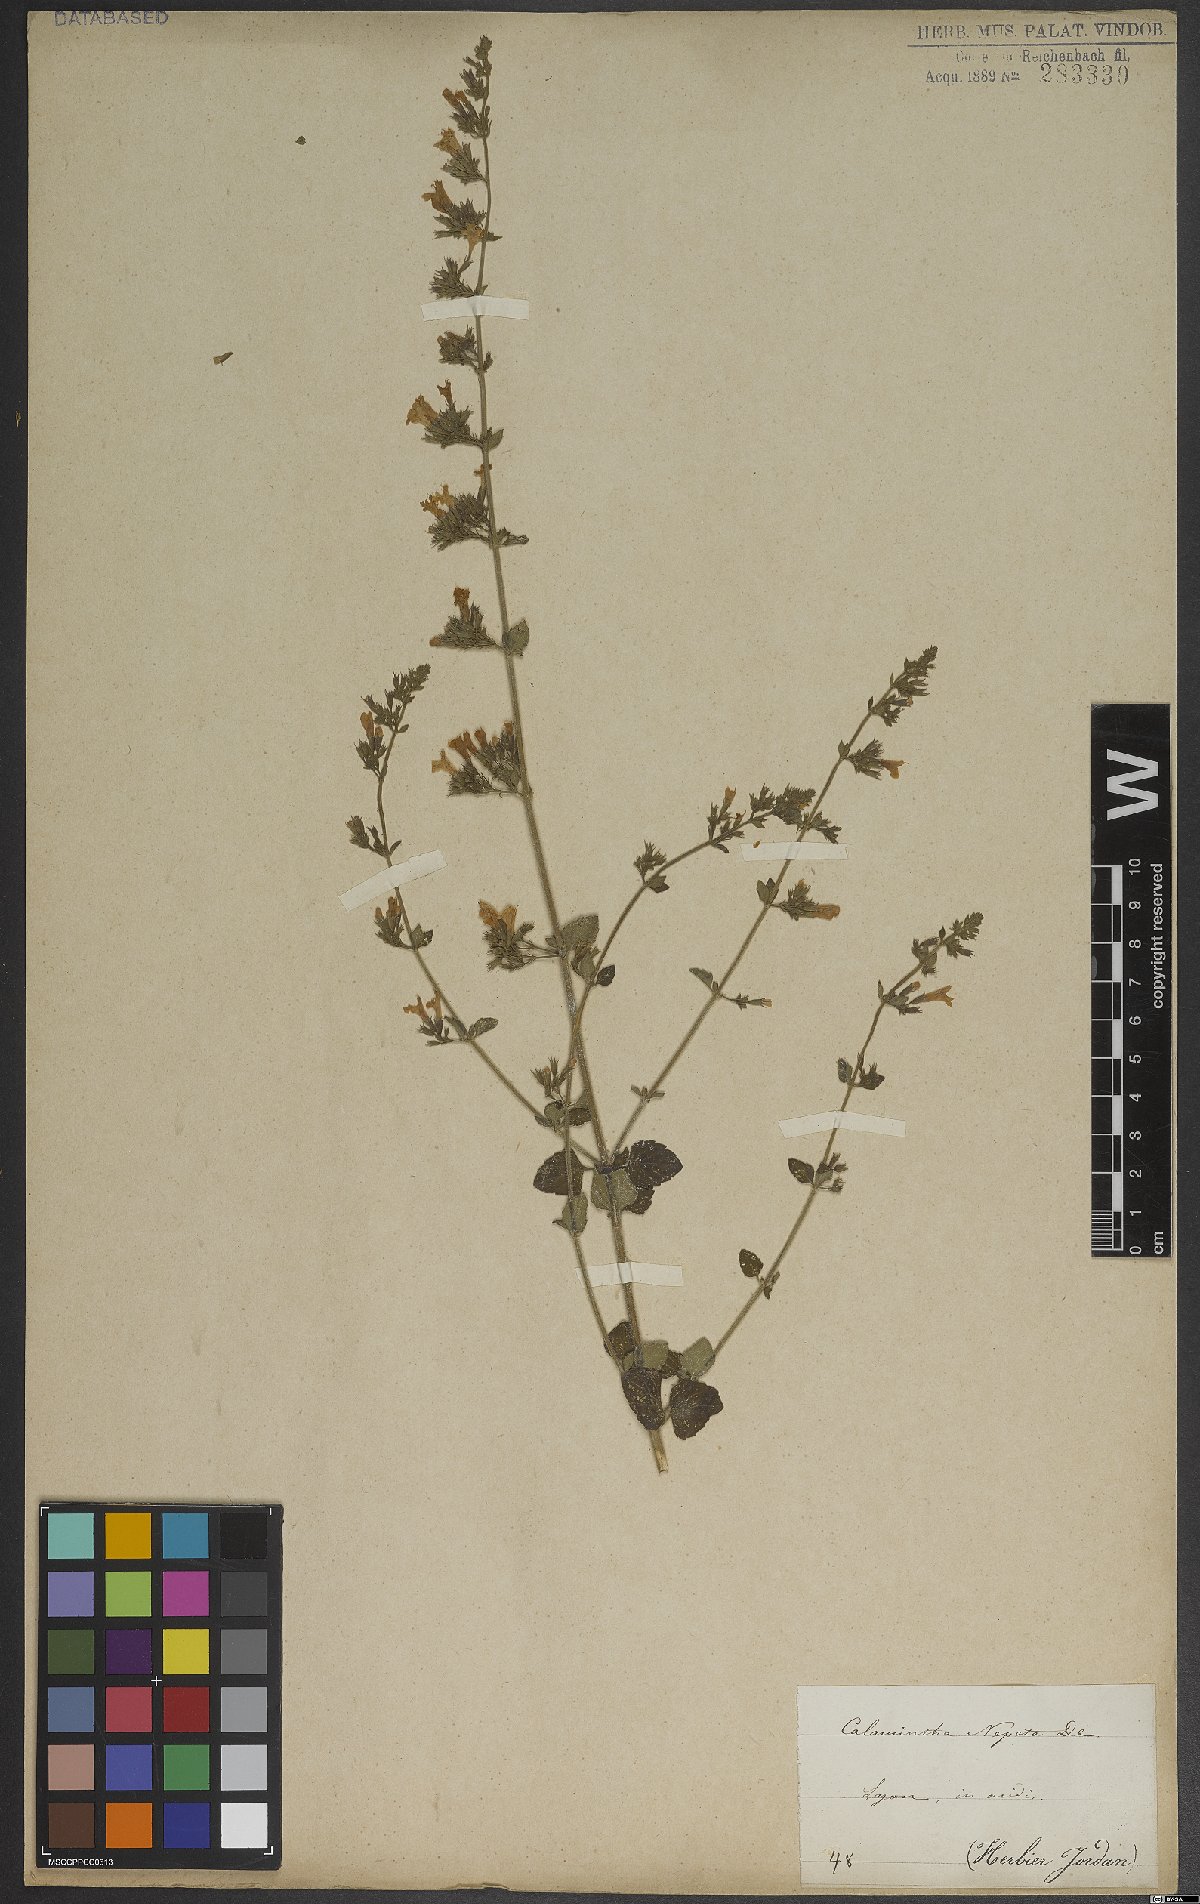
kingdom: Plantae
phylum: Tracheophyta
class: Magnoliopsida
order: Lamiales
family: Lamiaceae
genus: Clinopodium
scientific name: Clinopodium nepeta
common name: Lesser calamint
